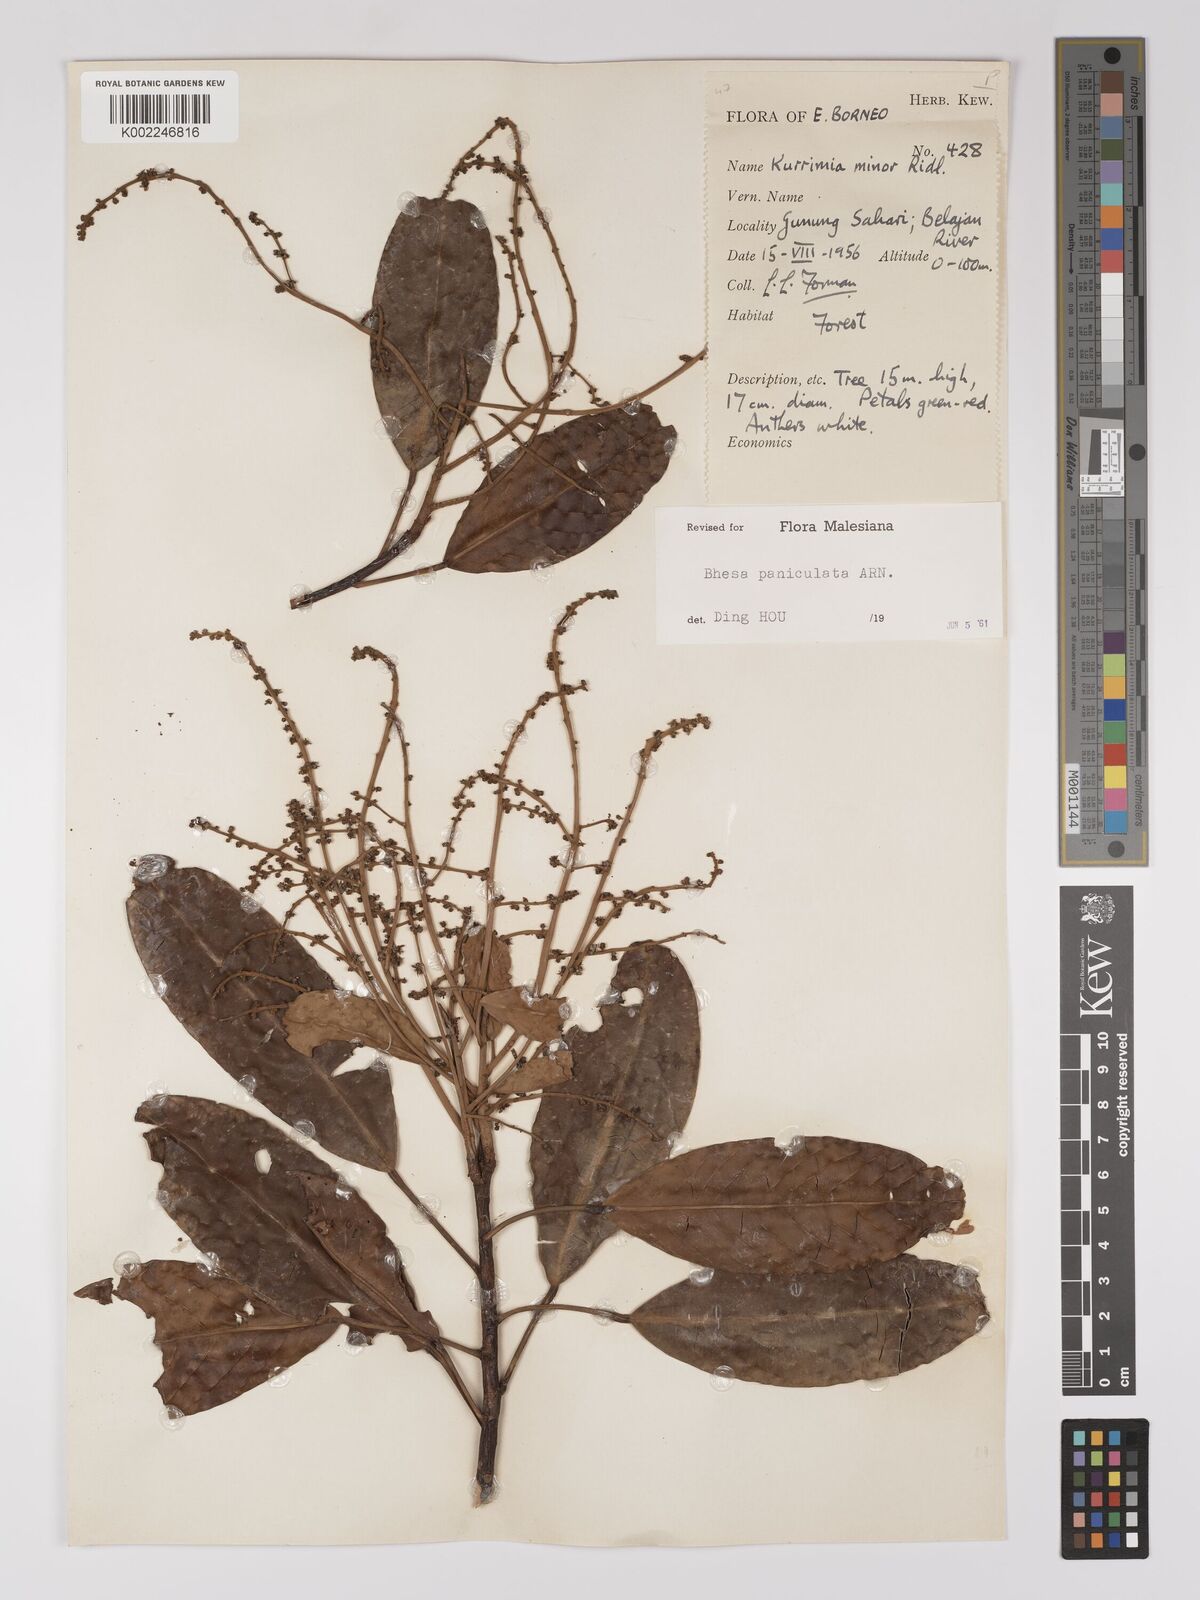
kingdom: Plantae
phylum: Tracheophyta
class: Magnoliopsida
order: Malpighiales
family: Centroplacaceae
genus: Bhesa
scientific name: Bhesa paniculata
